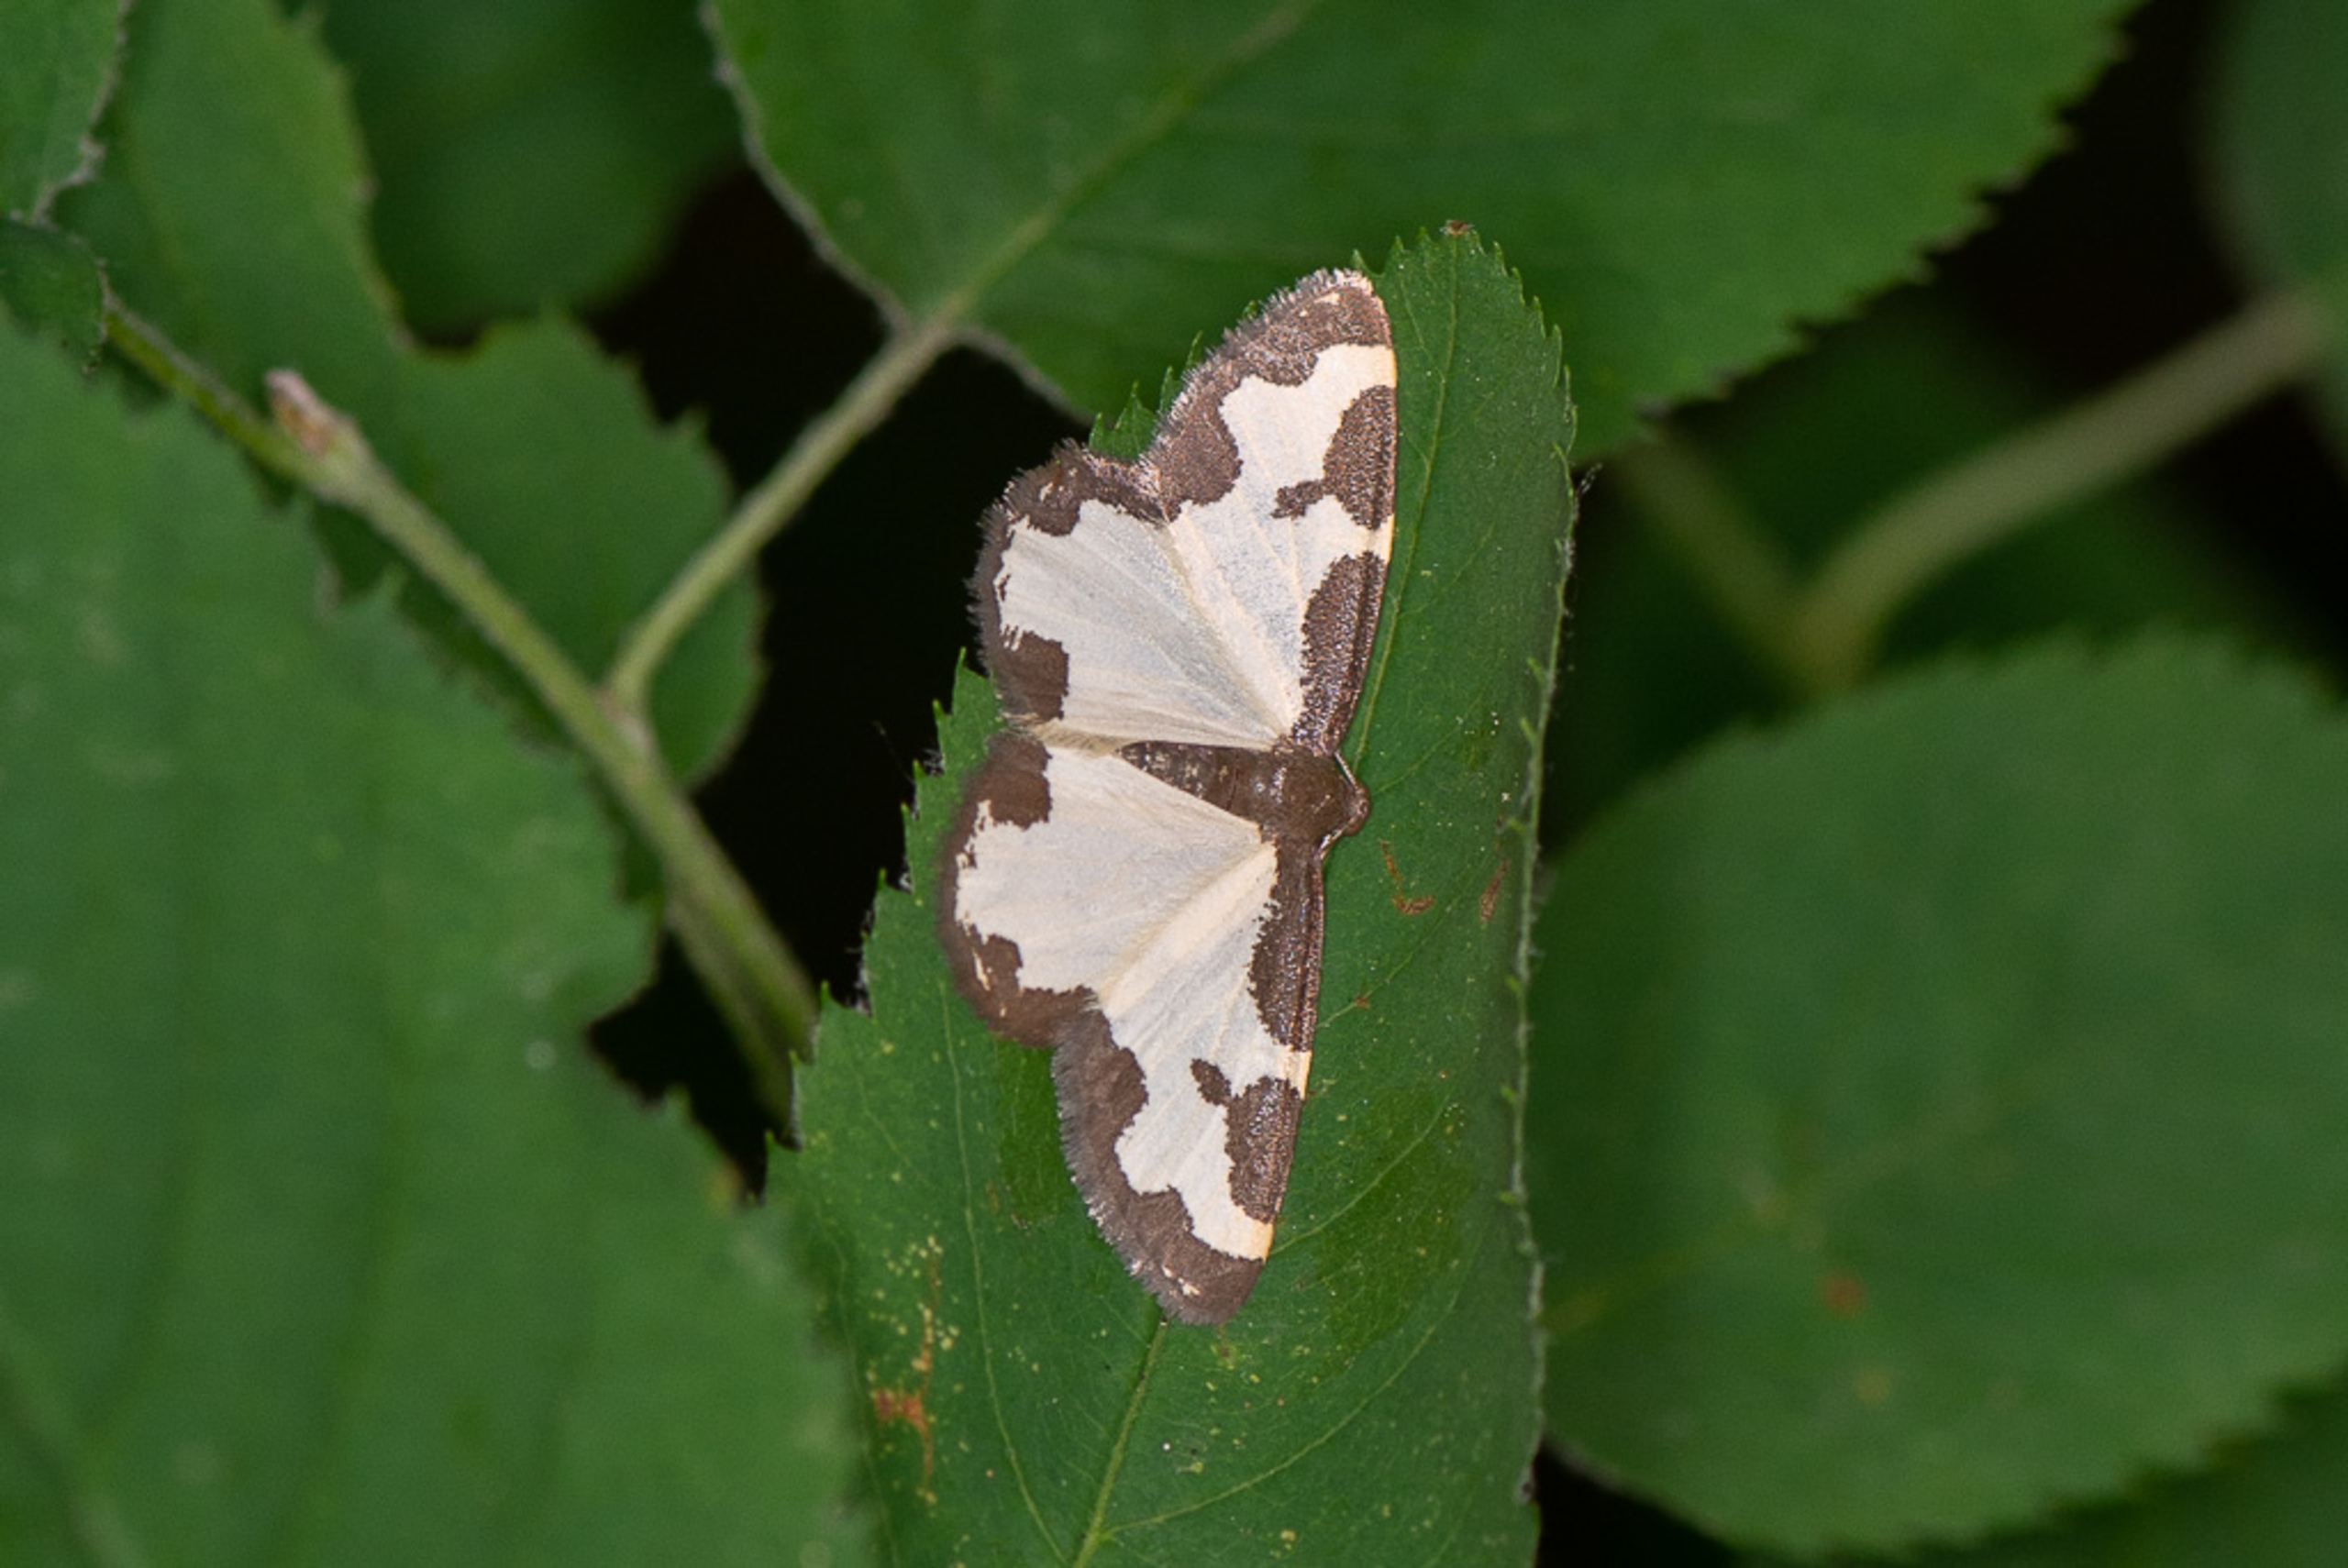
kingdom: Animalia
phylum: Arthropoda
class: Insecta
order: Lepidoptera
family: Geometridae
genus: Lomaspilis
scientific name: Lomaspilis marginata
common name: Sortrandet måler
